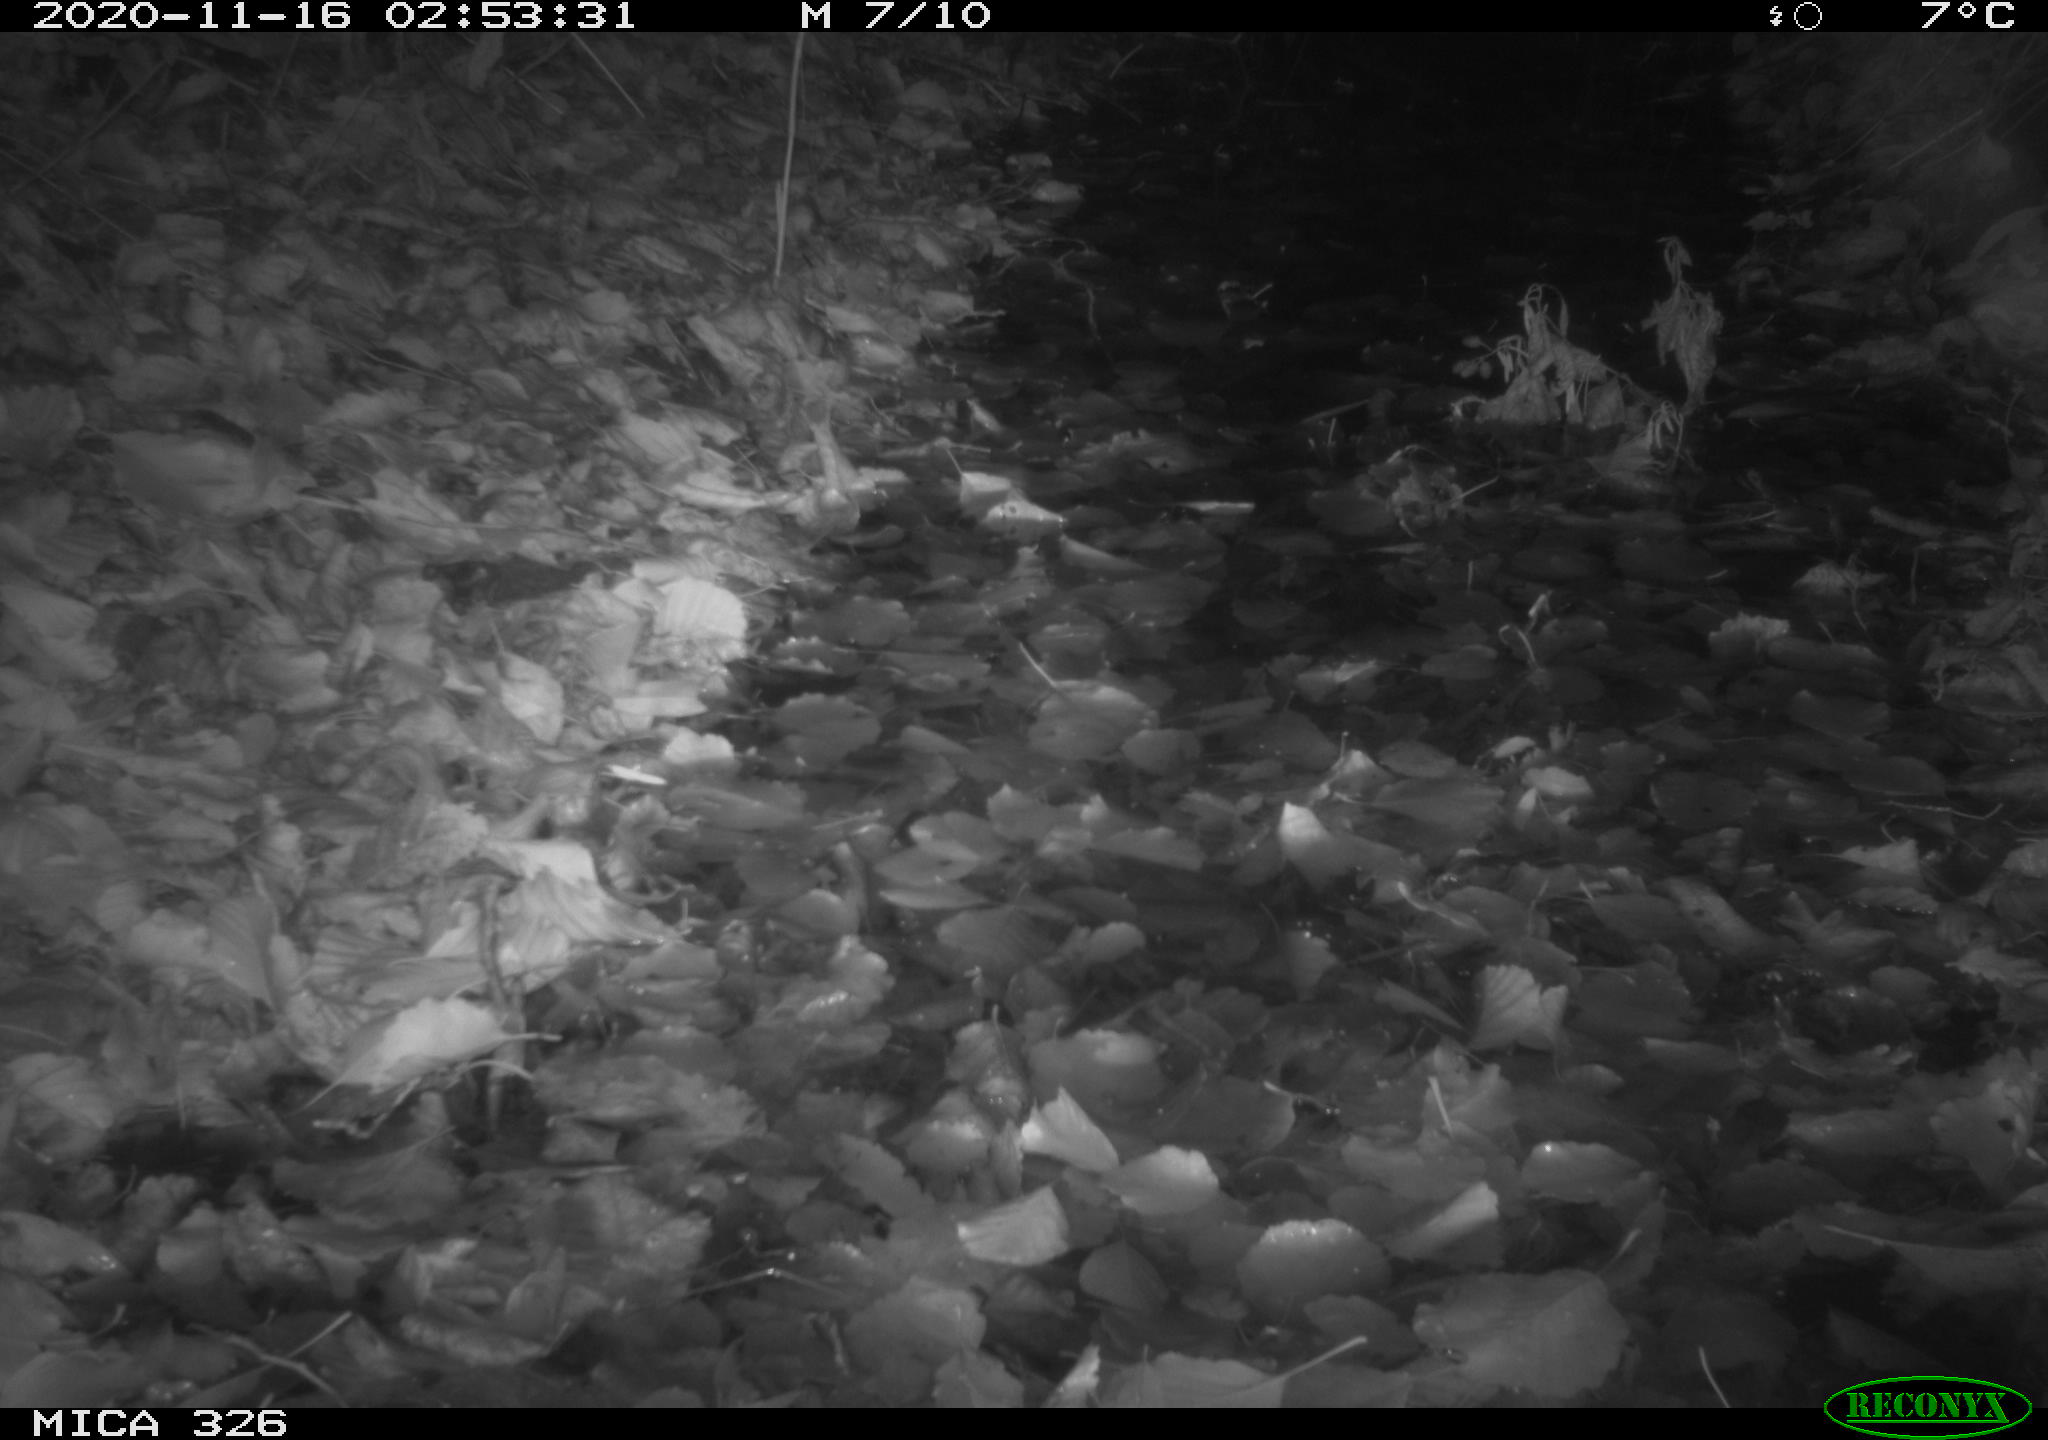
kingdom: Animalia
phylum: Chordata
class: Mammalia
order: Rodentia
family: Muridae
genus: Rattus
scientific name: Rattus norvegicus
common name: Brown rat
